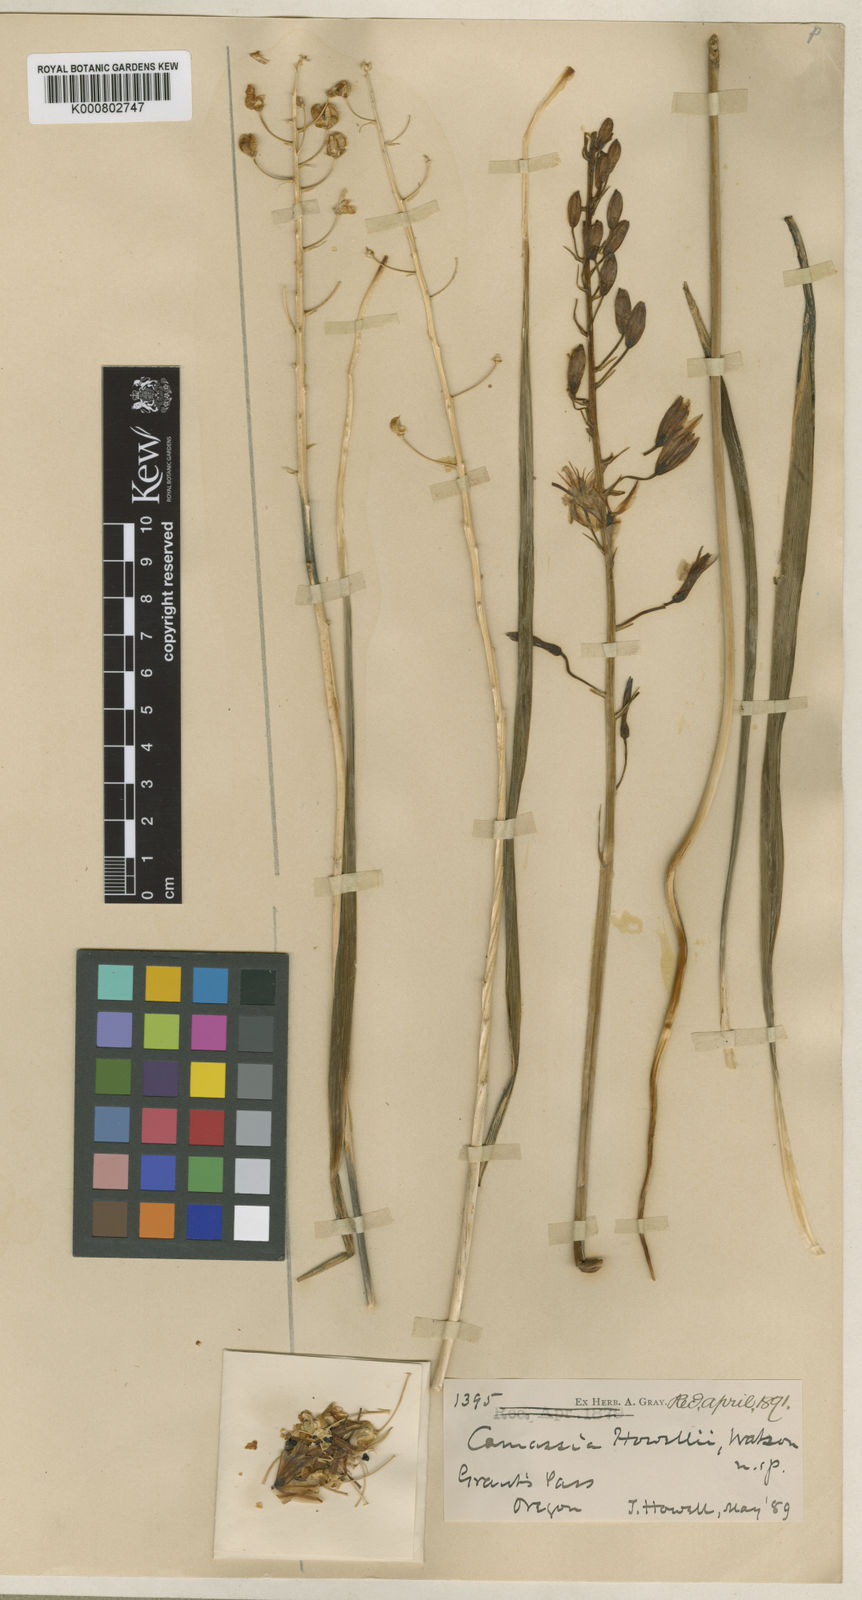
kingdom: Plantae
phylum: Tracheophyta
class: Liliopsida
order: Asparagales
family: Asparagaceae
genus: Camassia
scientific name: Camassia howellii
